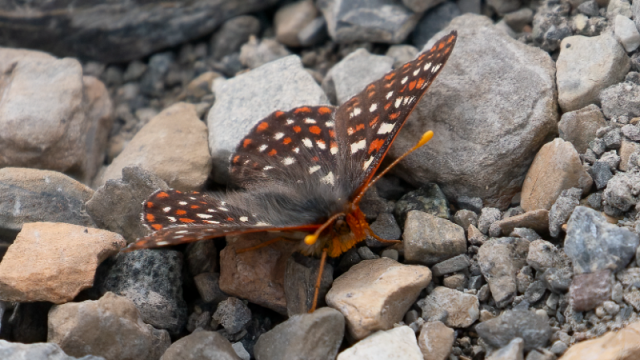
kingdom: Animalia
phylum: Arthropoda
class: Insecta
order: Lepidoptera
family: Nymphalidae
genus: Occidryas
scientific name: Occidryas colon
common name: Snowberry Checkerspot
